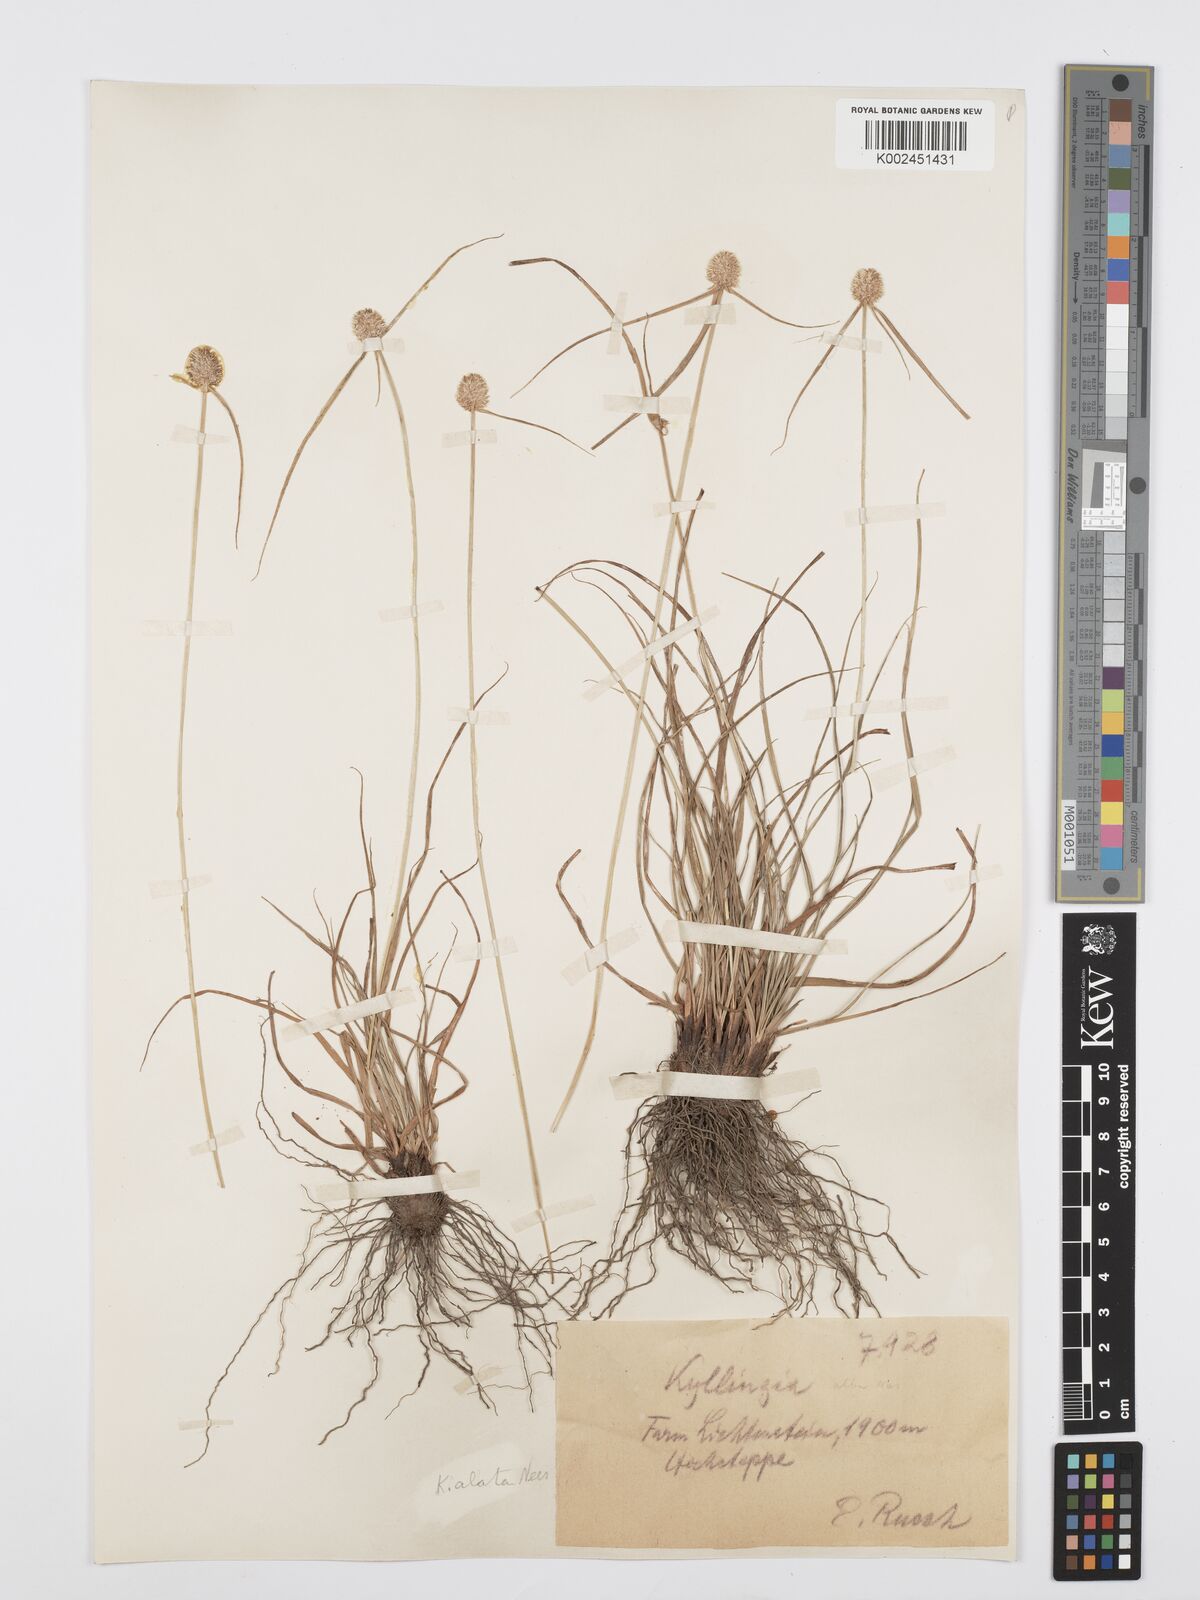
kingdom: Plantae
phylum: Tracheophyta
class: Liliopsida
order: Poales
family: Cyperaceae
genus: Cyperus
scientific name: Cyperus alatus
